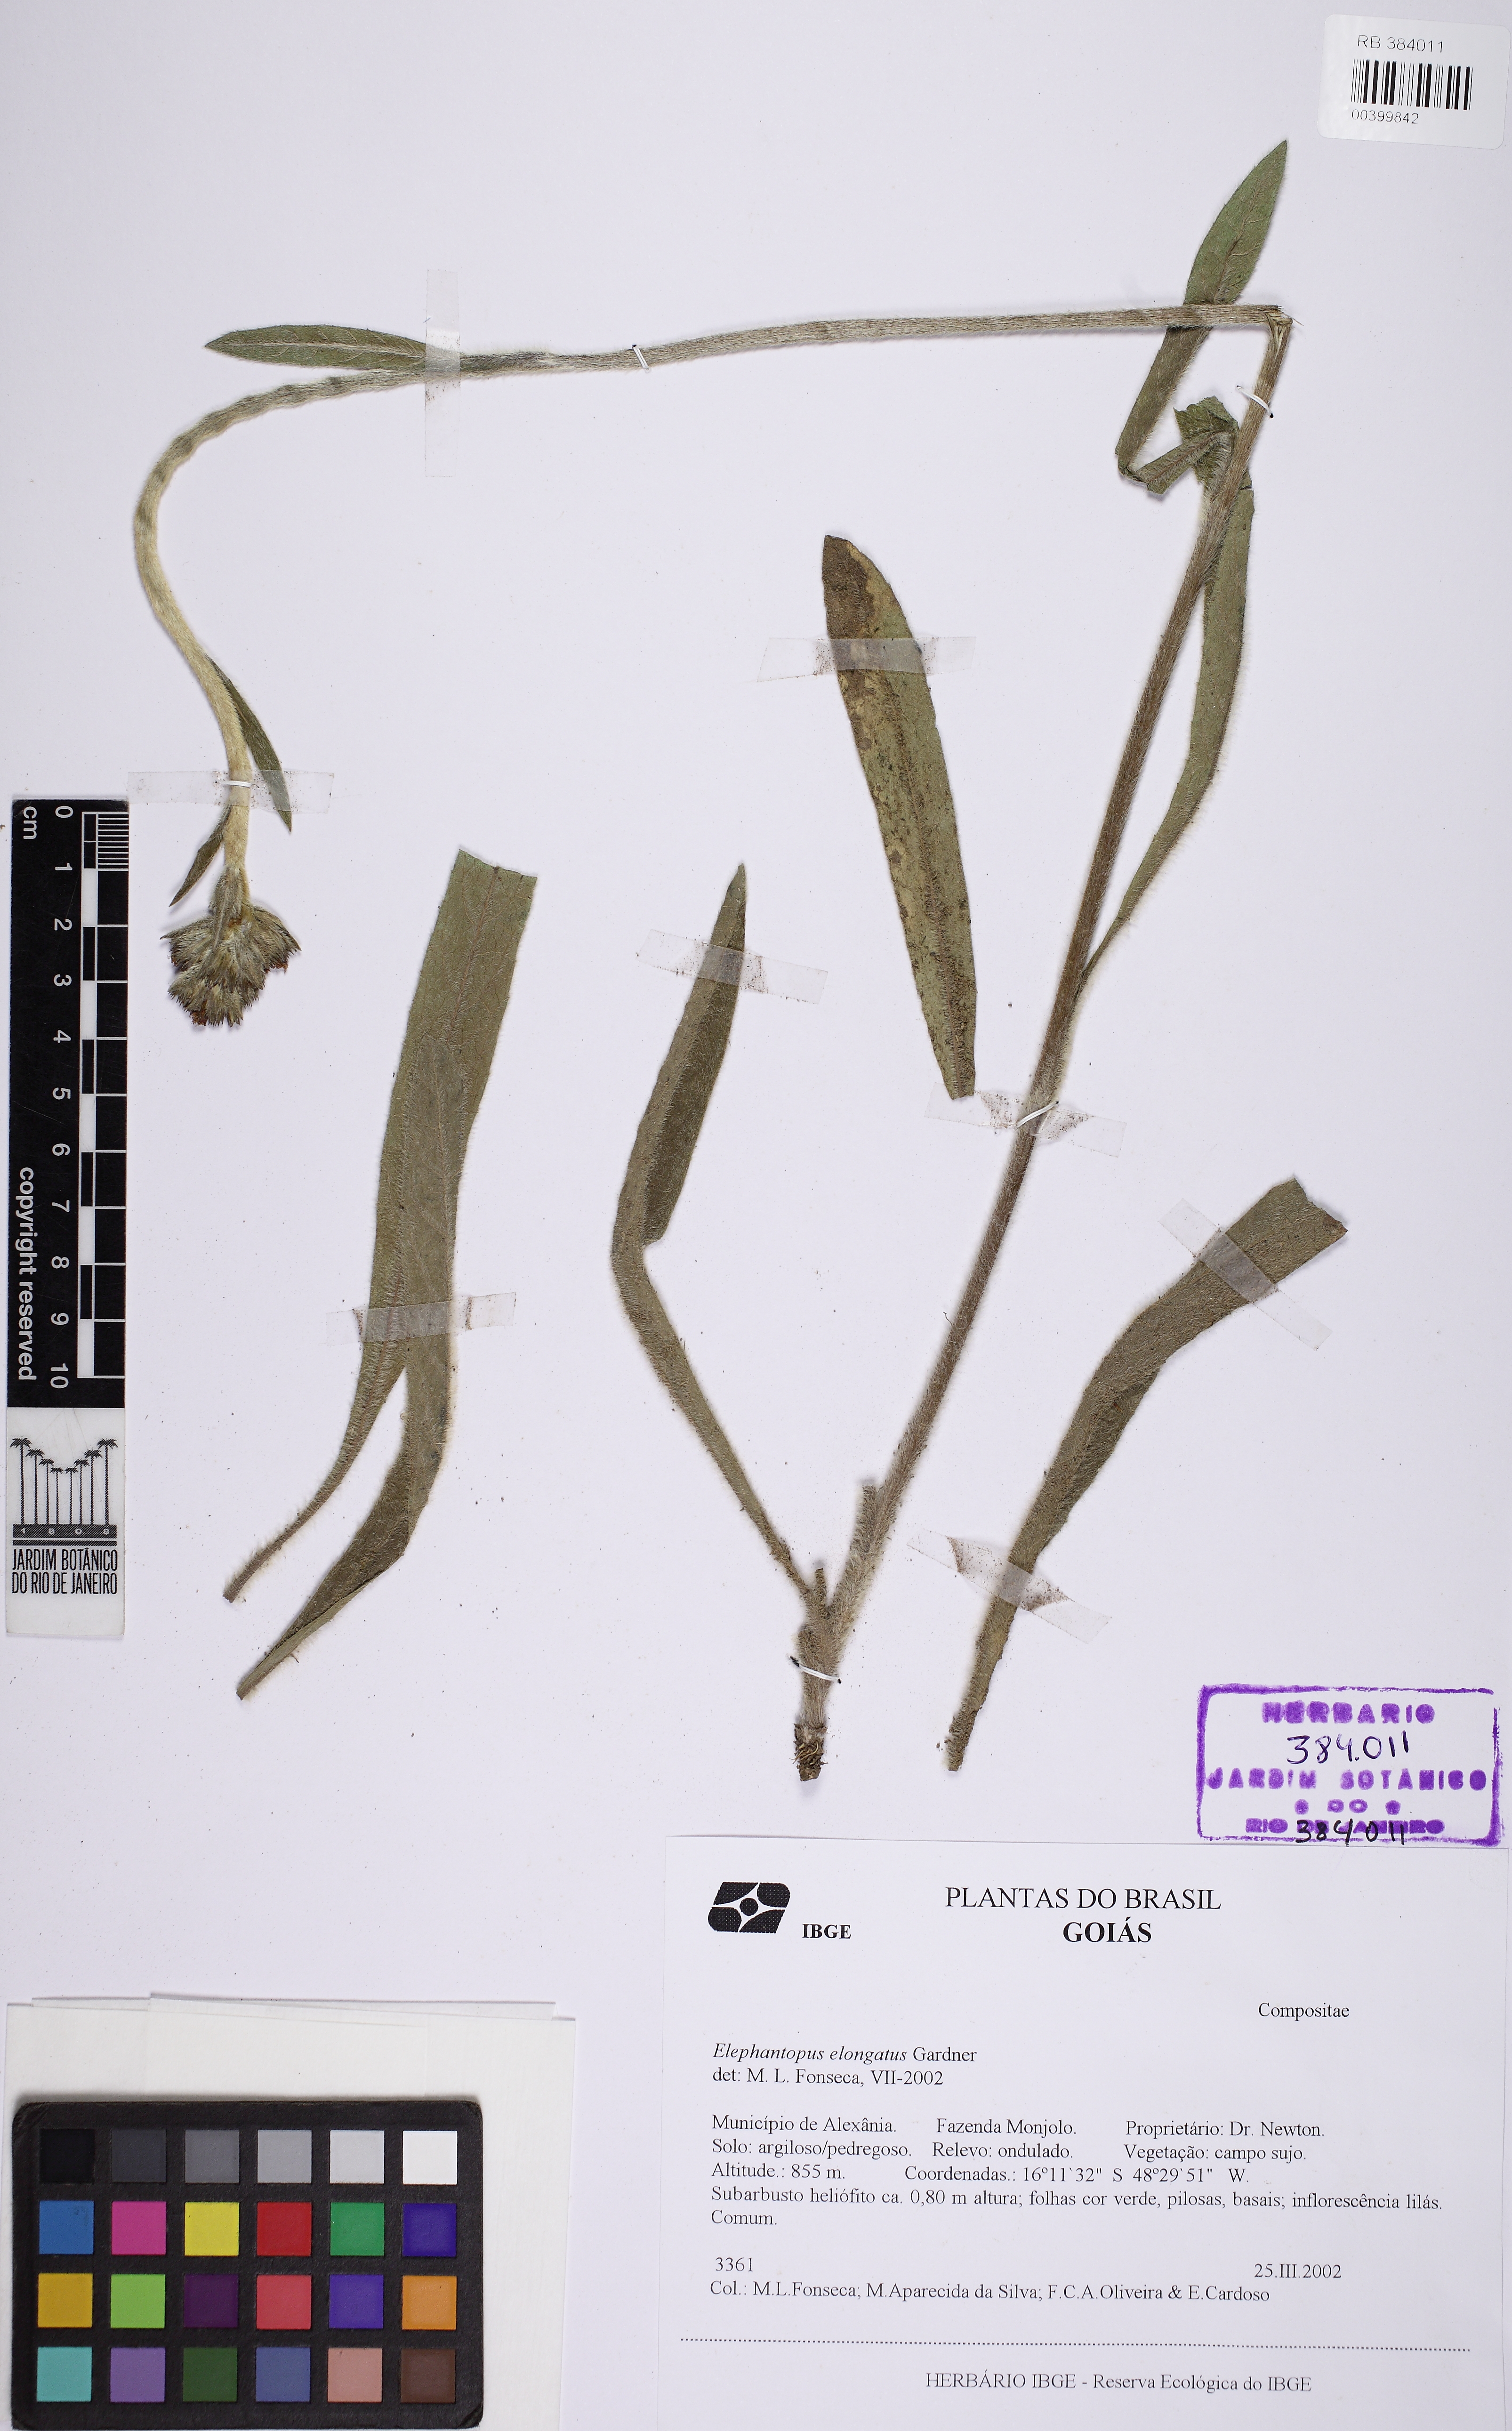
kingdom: Plantae
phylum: Tracheophyta
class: Magnoliopsida
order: Asterales
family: Asteraceae
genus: Elephantopus
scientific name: Elephantopus elongatus
